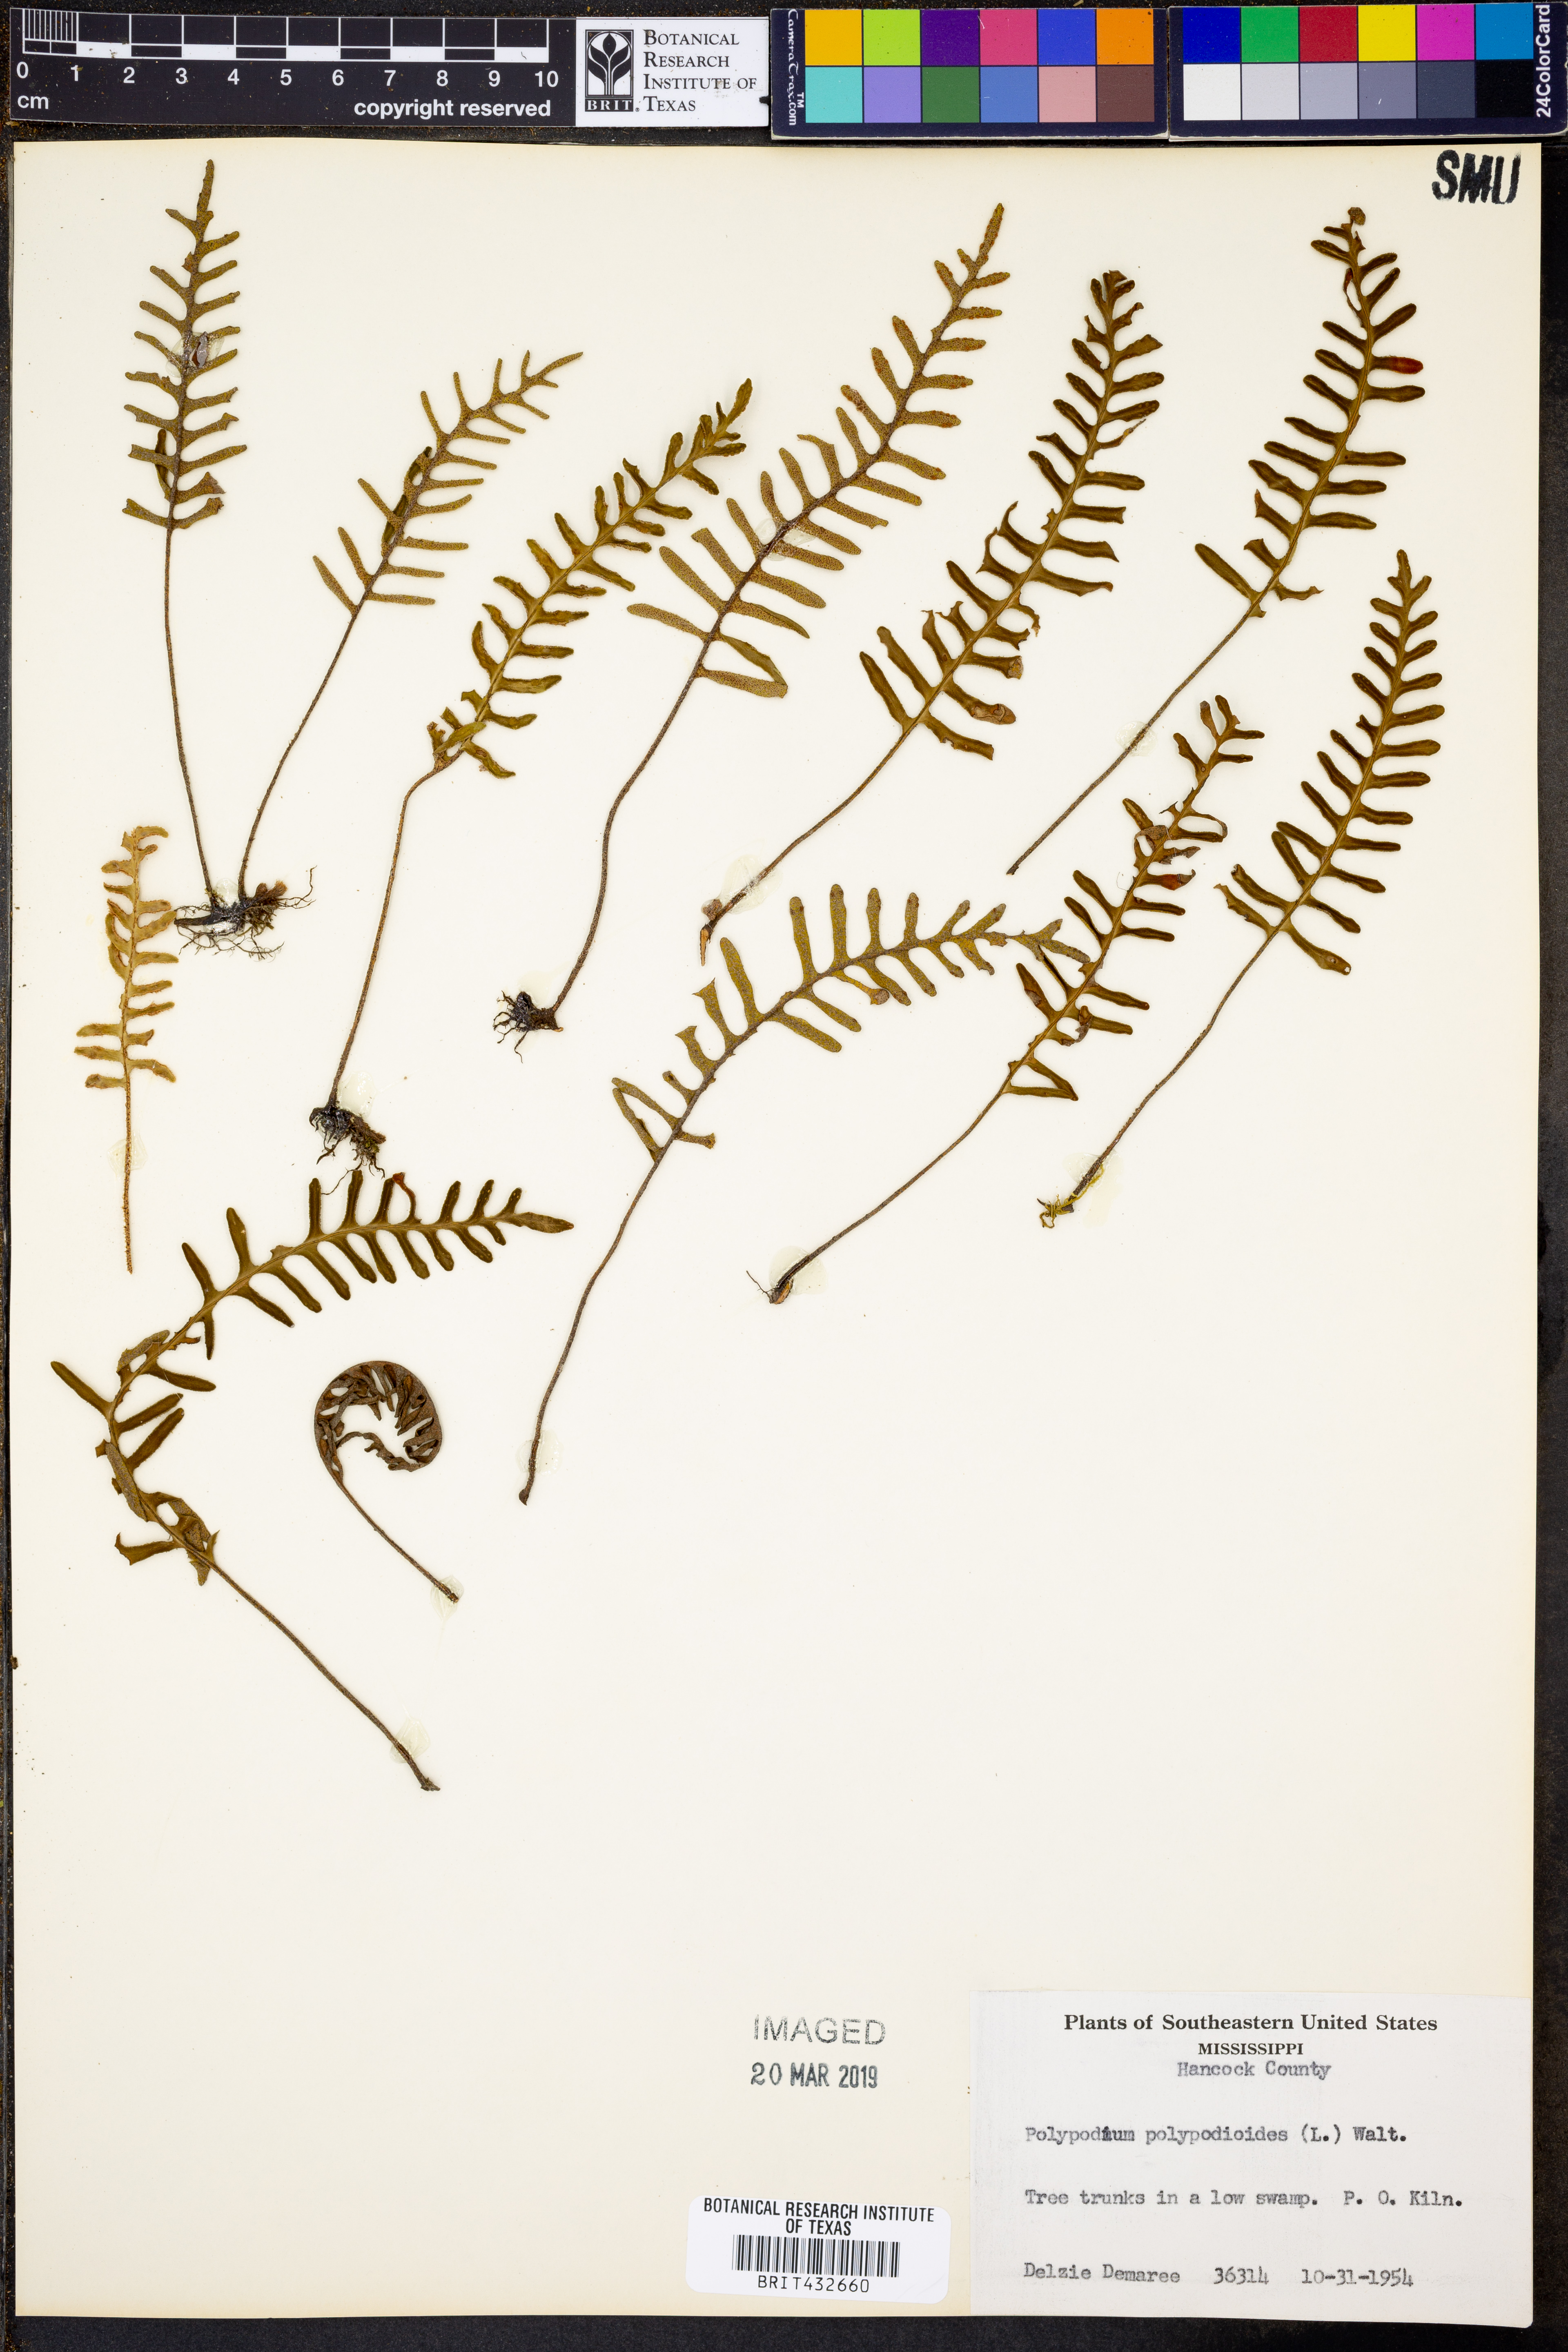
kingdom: Plantae
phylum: Tracheophyta
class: Polypodiopsida
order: Polypodiales
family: Polypodiaceae
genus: Pleopeltis
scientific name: Pleopeltis polypodioides
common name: Resurrection fern
